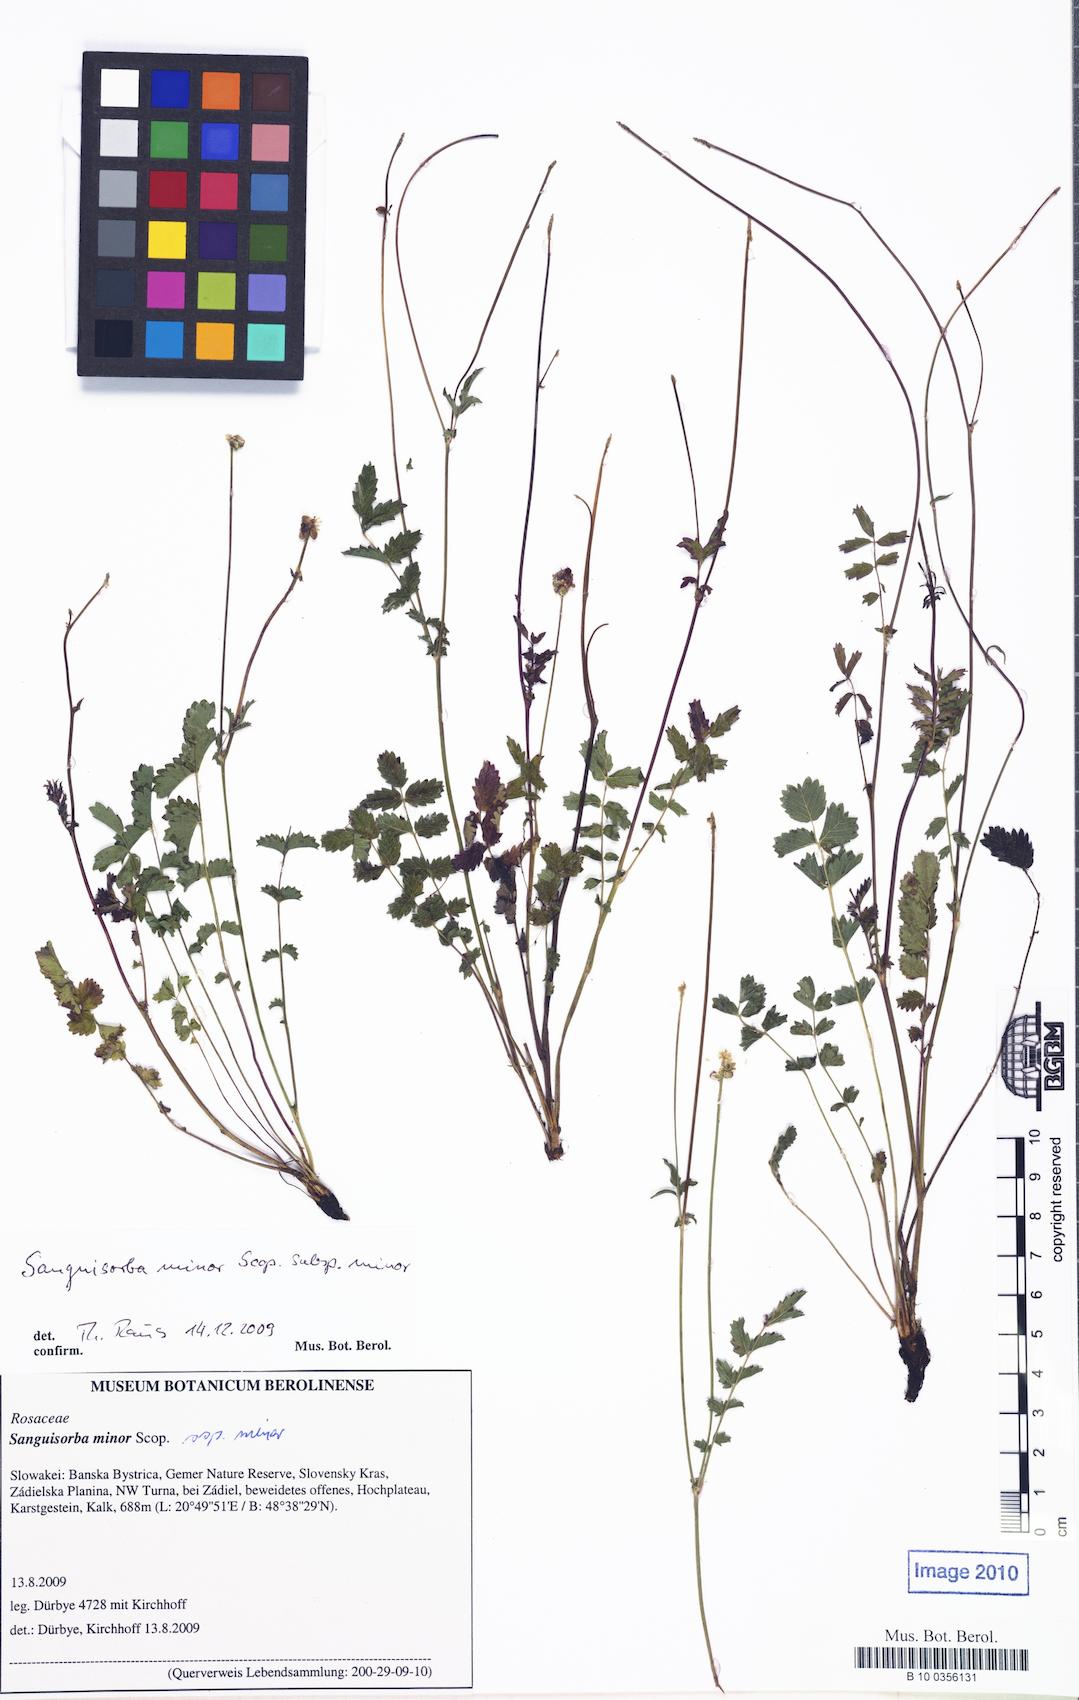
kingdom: Plantae
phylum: Tracheophyta
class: Magnoliopsida
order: Rosales
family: Rosaceae
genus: Poterium
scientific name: Poterium sanguisorba
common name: Salad burnet
